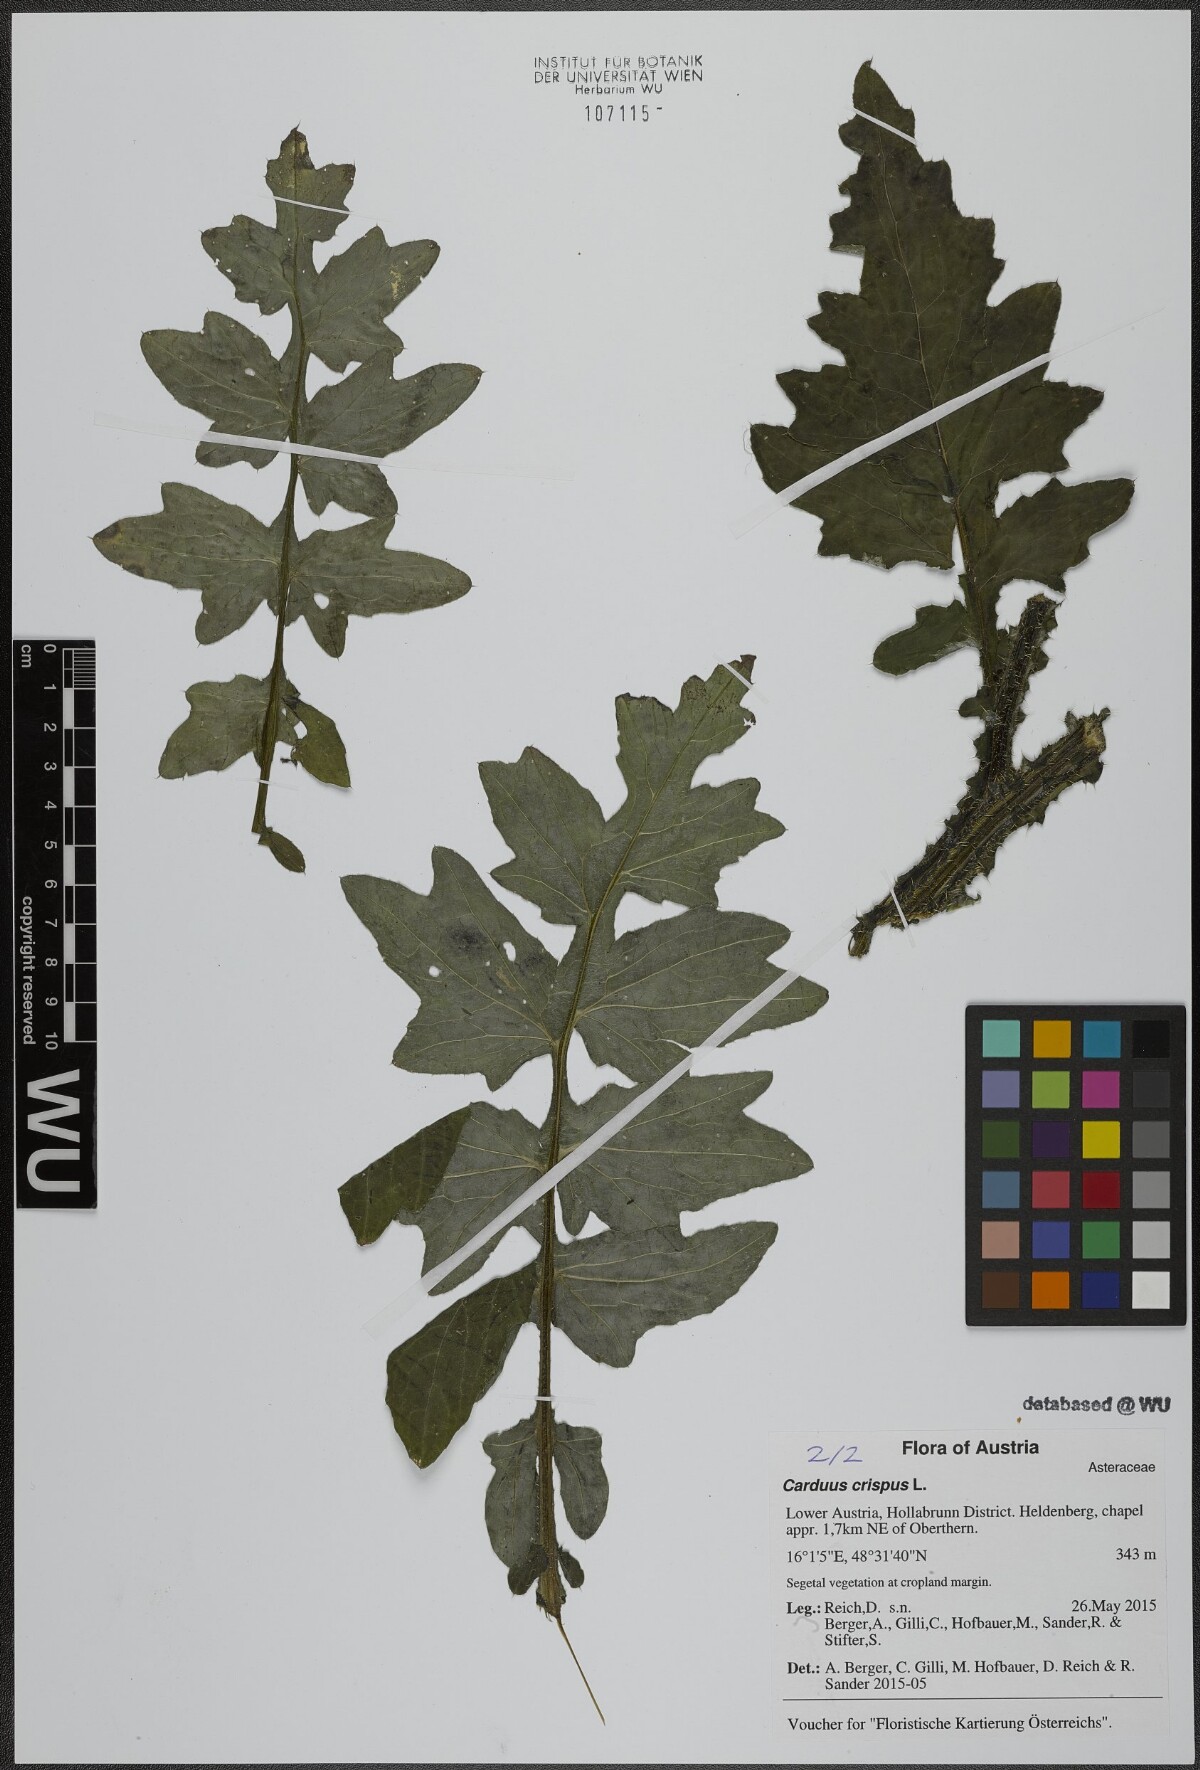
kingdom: Plantae
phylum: Tracheophyta
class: Magnoliopsida
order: Asterales
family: Asteraceae
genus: Carduus
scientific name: Carduus crispus
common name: Welted thistle
